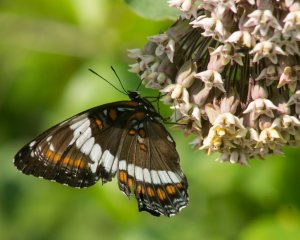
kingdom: Animalia
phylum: Arthropoda
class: Insecta
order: Lepidoptera
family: Nymphalidae
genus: Limenitis
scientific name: Limenitis arthemis
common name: Red-spotted Admiral
